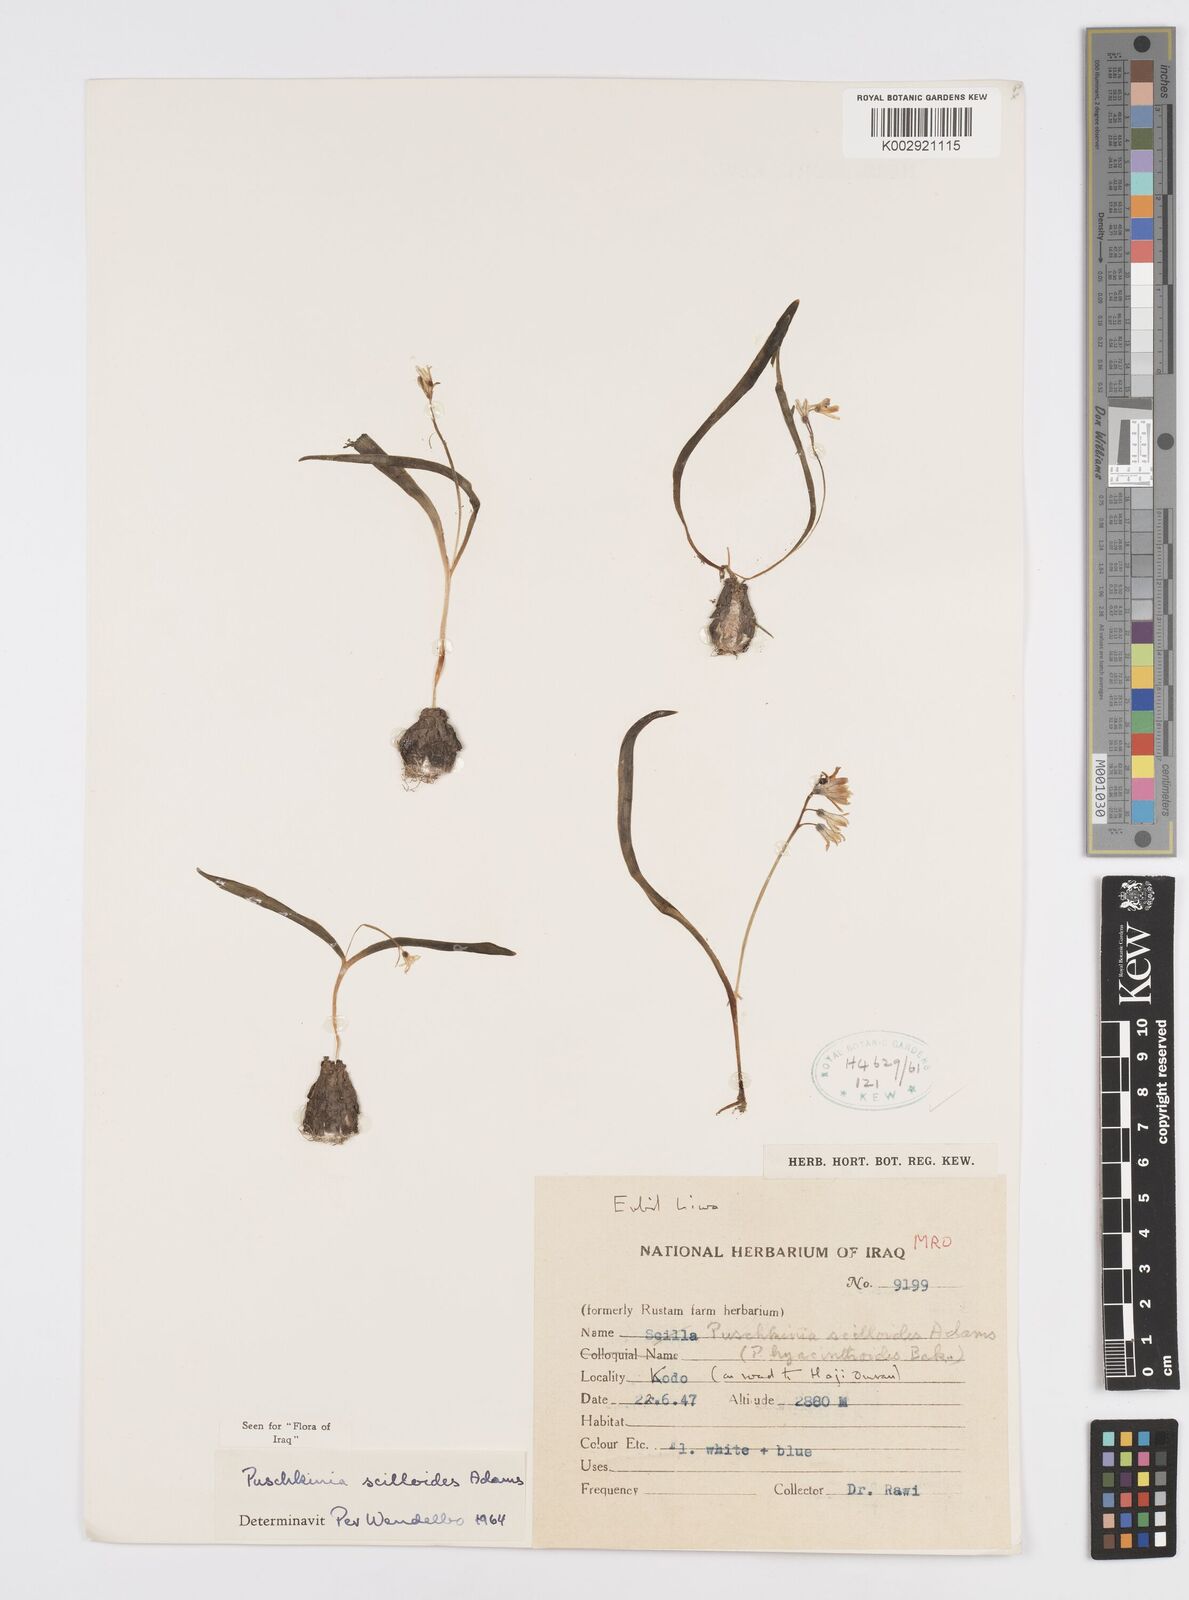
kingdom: Plantae
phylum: Tracheophyta
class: Liliopsida
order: Asparagales
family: Asparagaceae
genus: Puschkinia
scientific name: Puschkinia scilloides
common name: Striped squill
